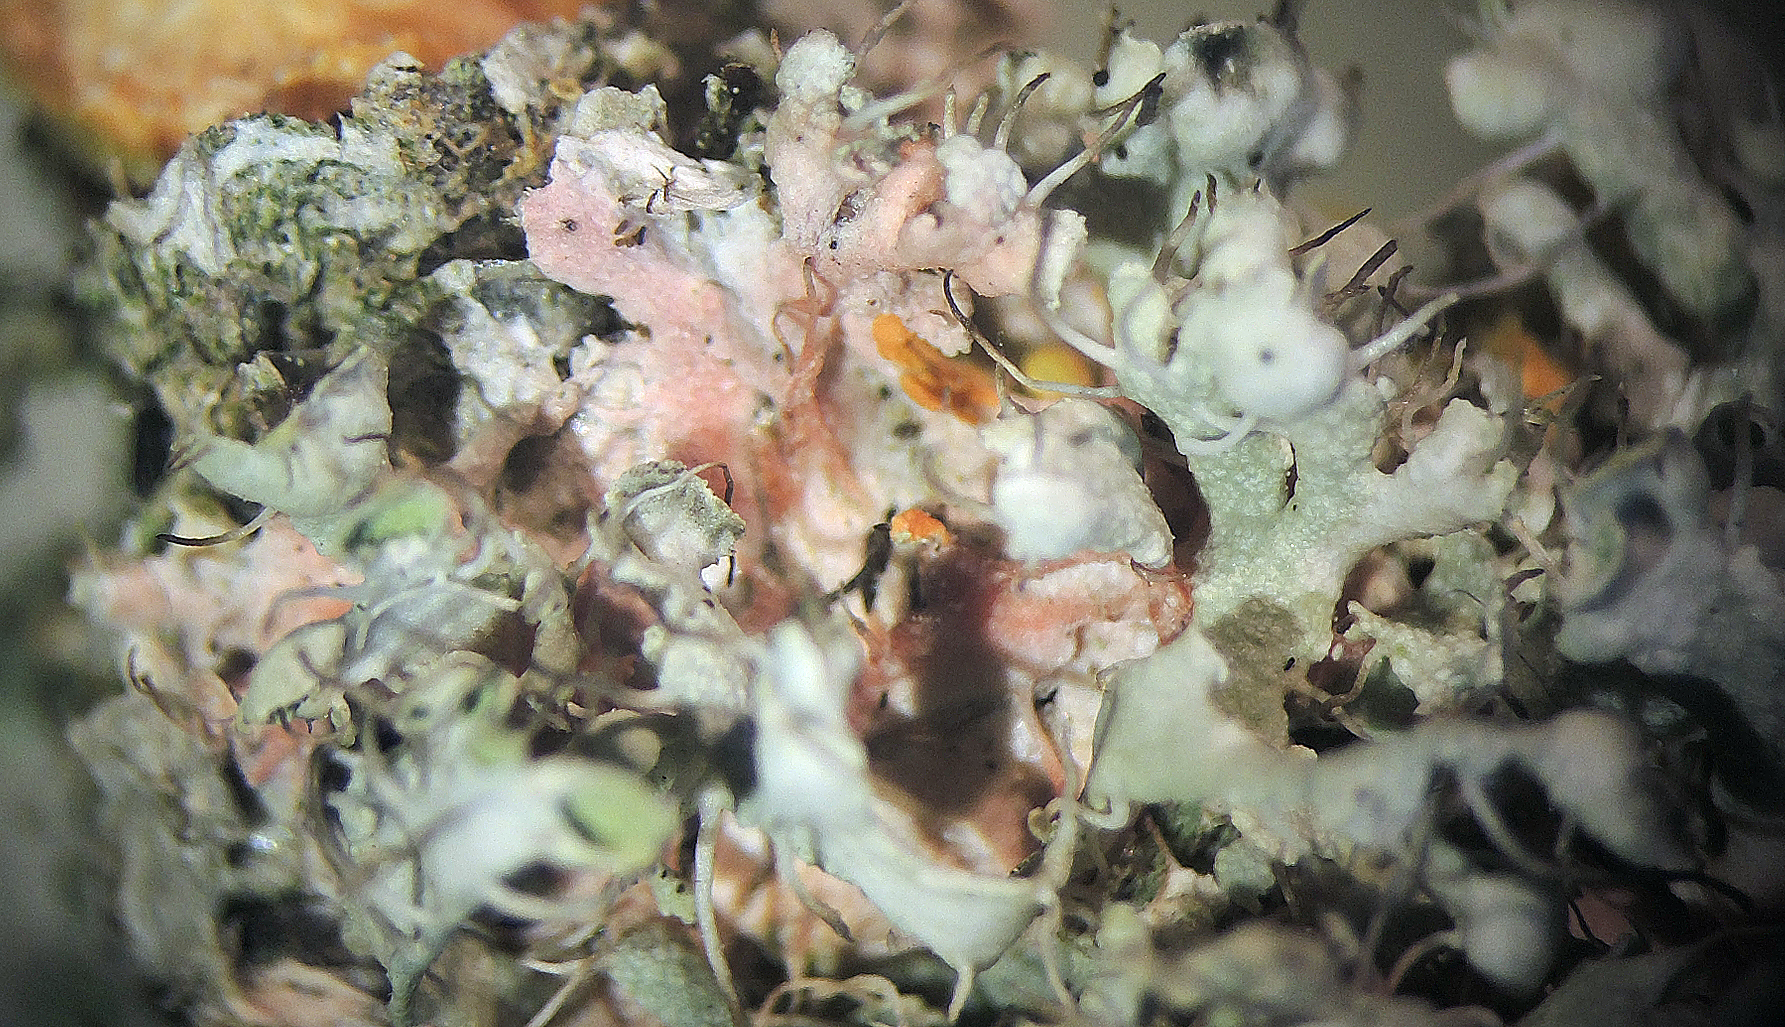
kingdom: Fungi
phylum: Basidiomycota
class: Agaricomycetes
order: Corticiales
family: Corticiaceae
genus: Laetisaria
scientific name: Laetisaria lichenicola
